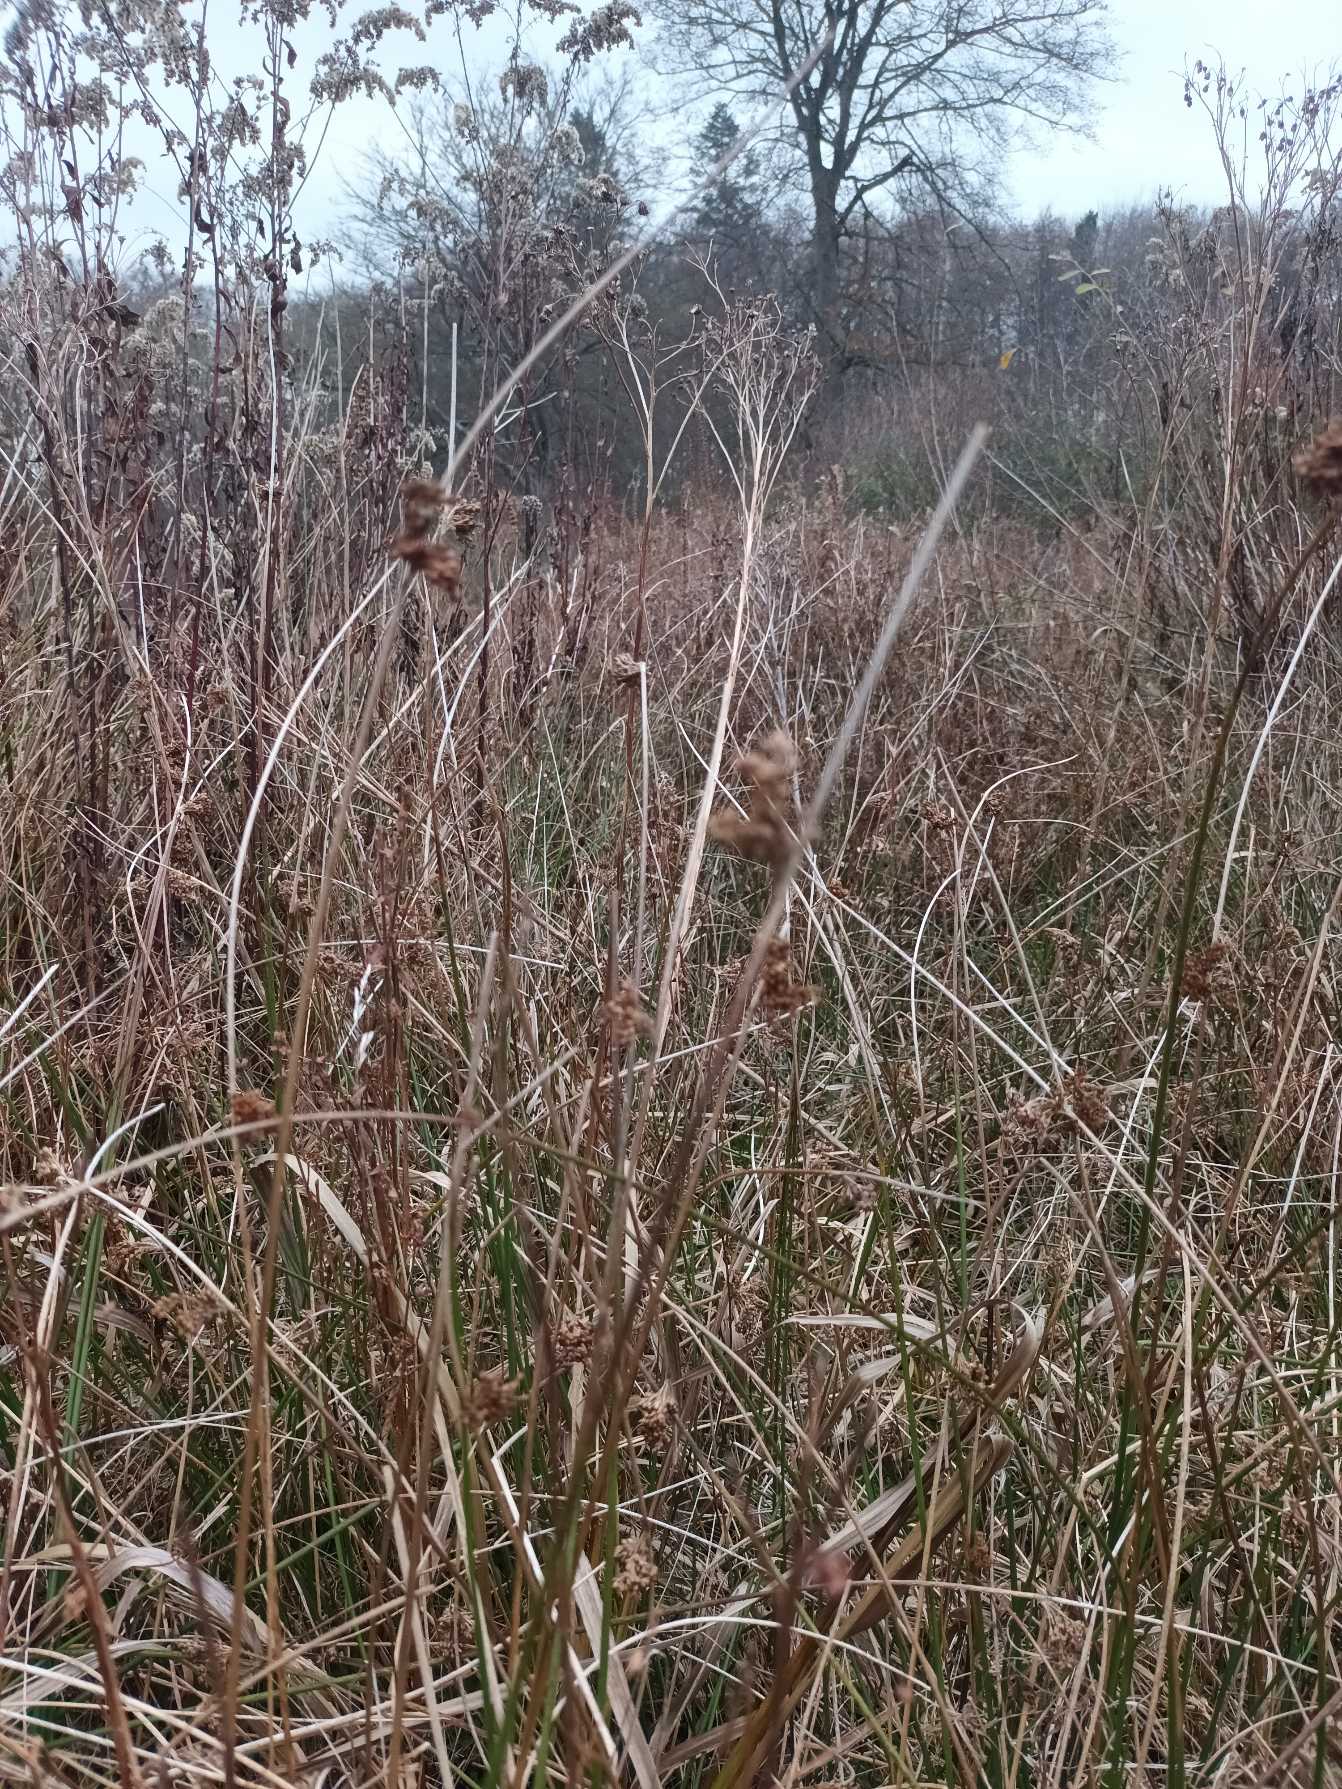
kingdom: Plantae
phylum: Tracheophyta
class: Liliopsida
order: Poales
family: Juncaceae
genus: Juncus
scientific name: Juncus effusus
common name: Lyse-siv
